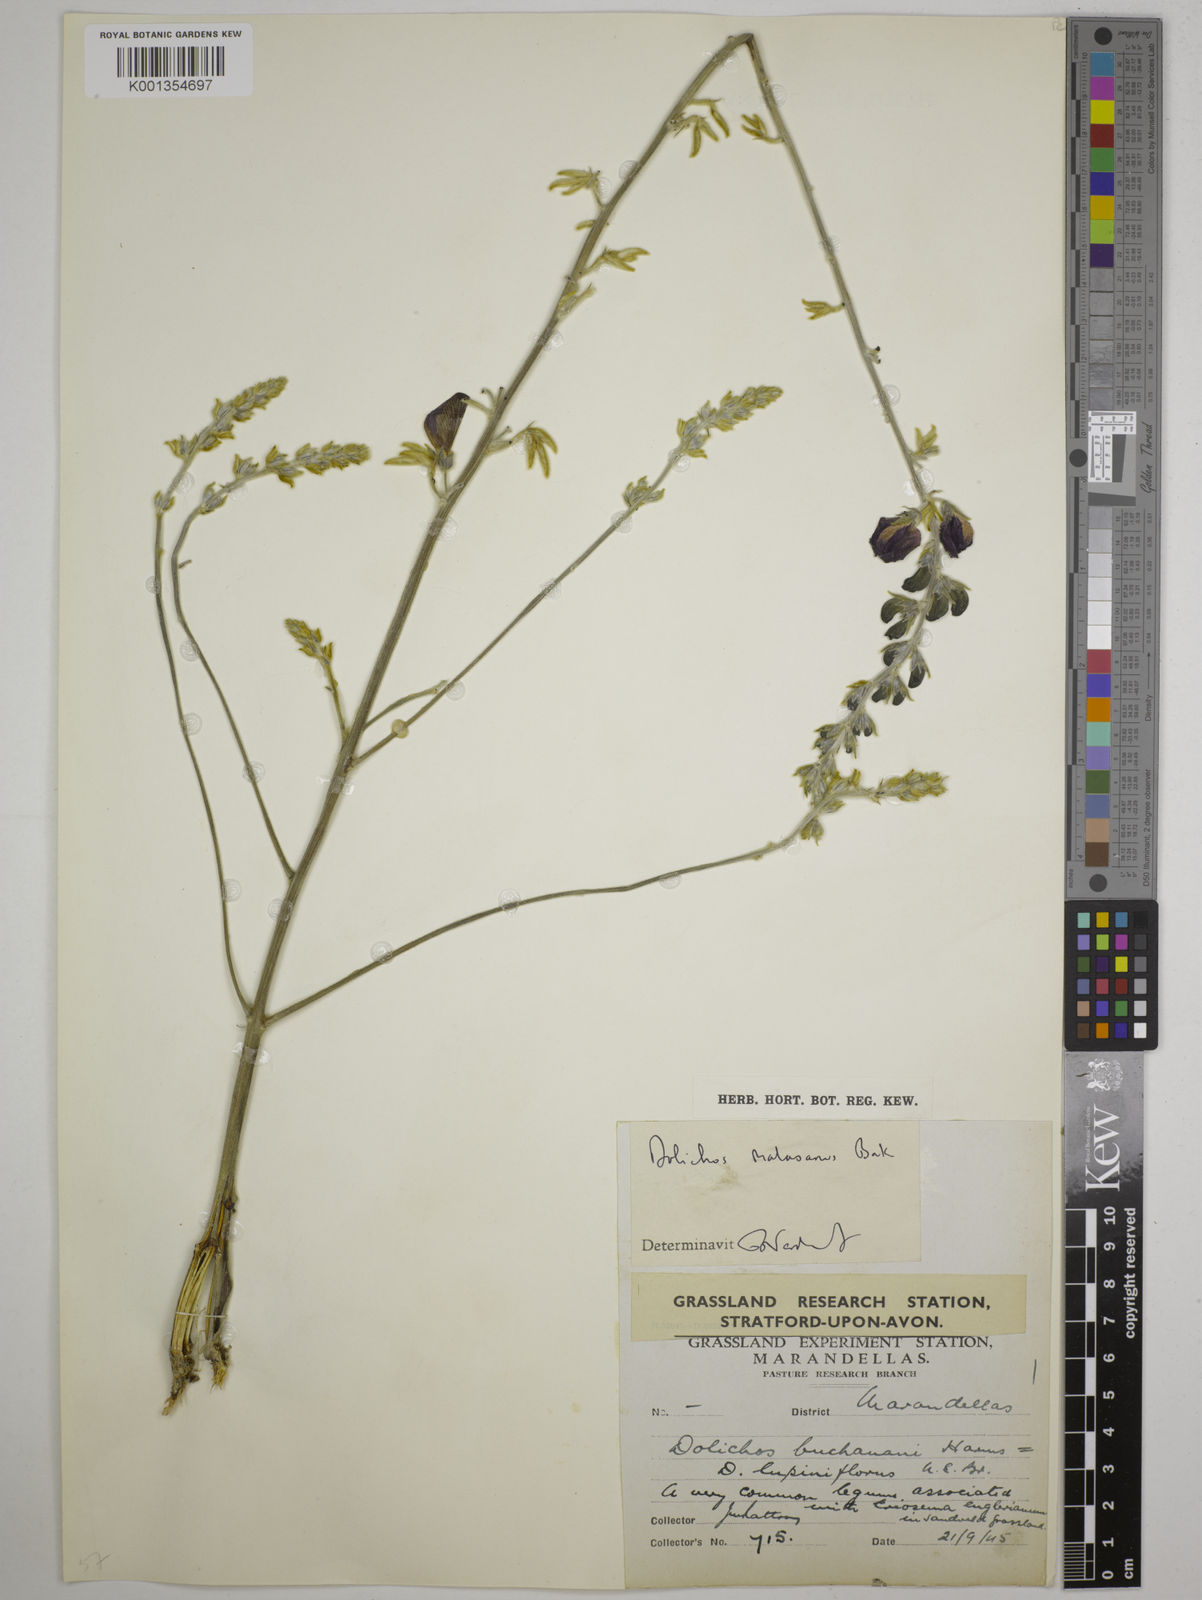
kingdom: Plantae
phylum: Tracheophyta
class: Magnoliopsida
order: Fabales
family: Fabaceae
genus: Dolichos
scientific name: Dolichos kilimandscharicus
